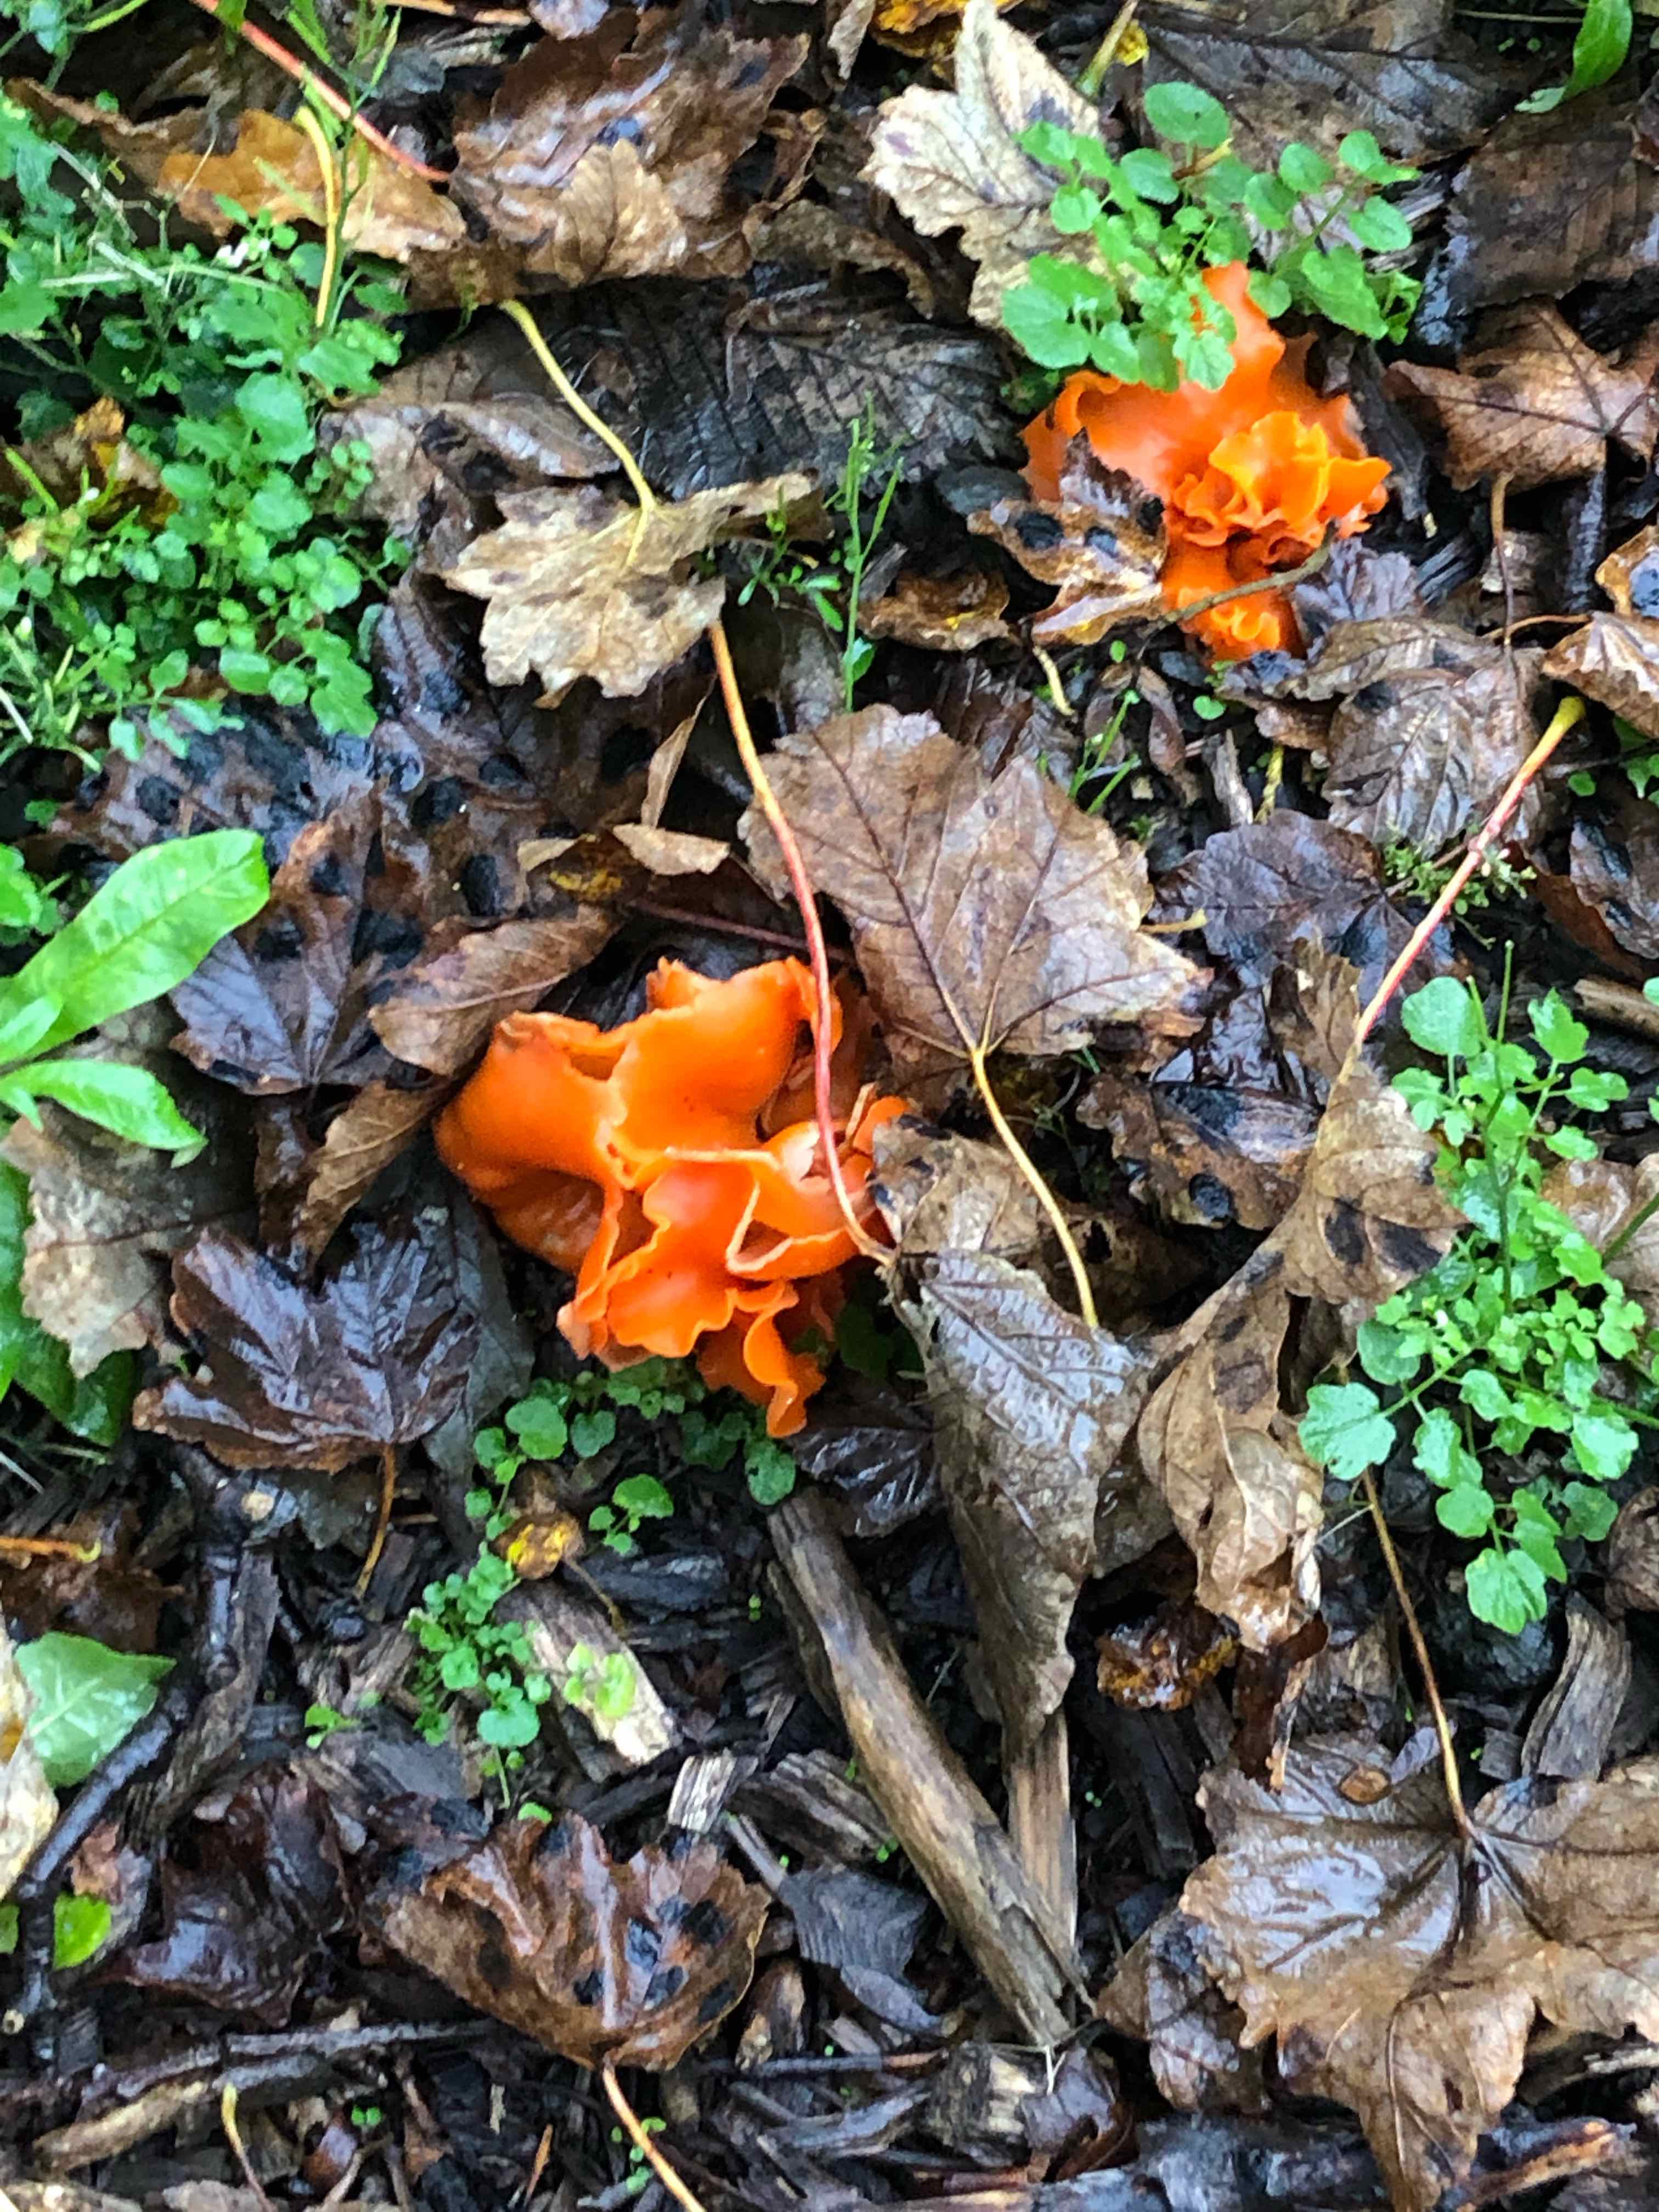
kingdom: Fungi
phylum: Ascomycota
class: Pezizomycetes
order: Pezizales
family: Pyronemataceae
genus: Aleuria
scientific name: Aleuria aurantia
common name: almindelig orangebæger
